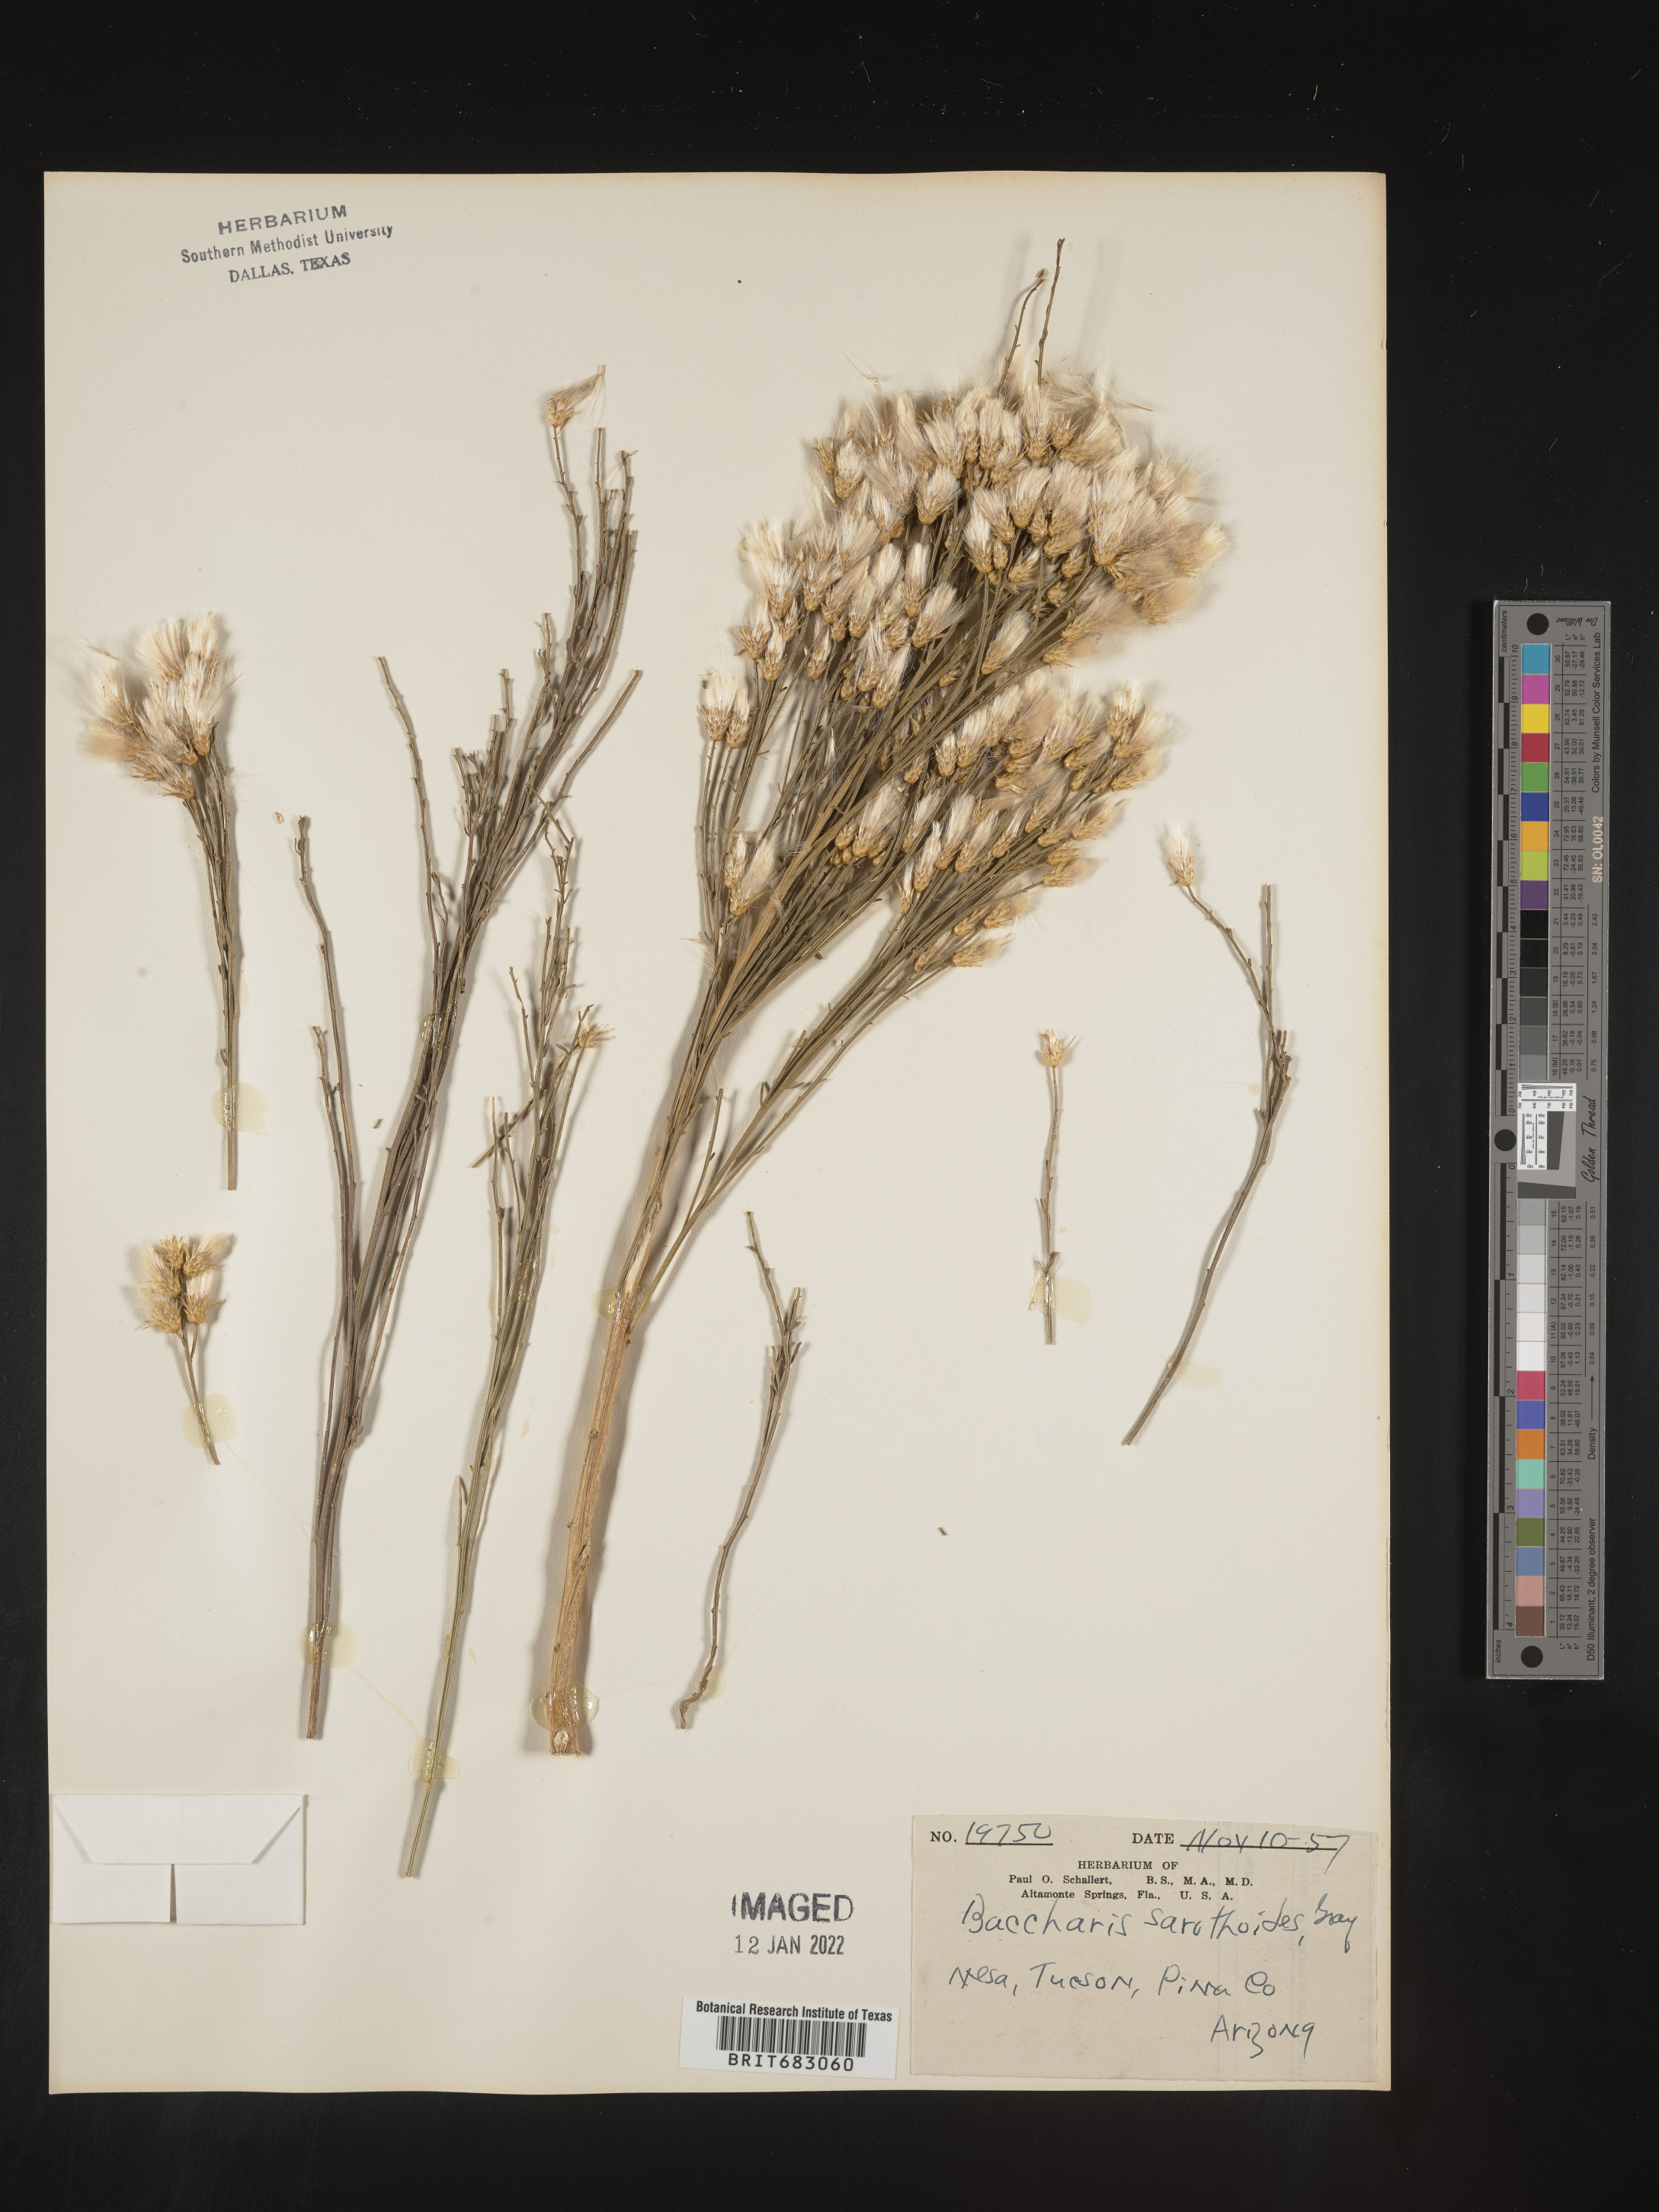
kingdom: Plantae
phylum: Tracheophyta
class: Magnoliopsida
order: Asterales
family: Asteraceae
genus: Baccharis
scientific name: Baccharis sarothroides
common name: Desert-broom
